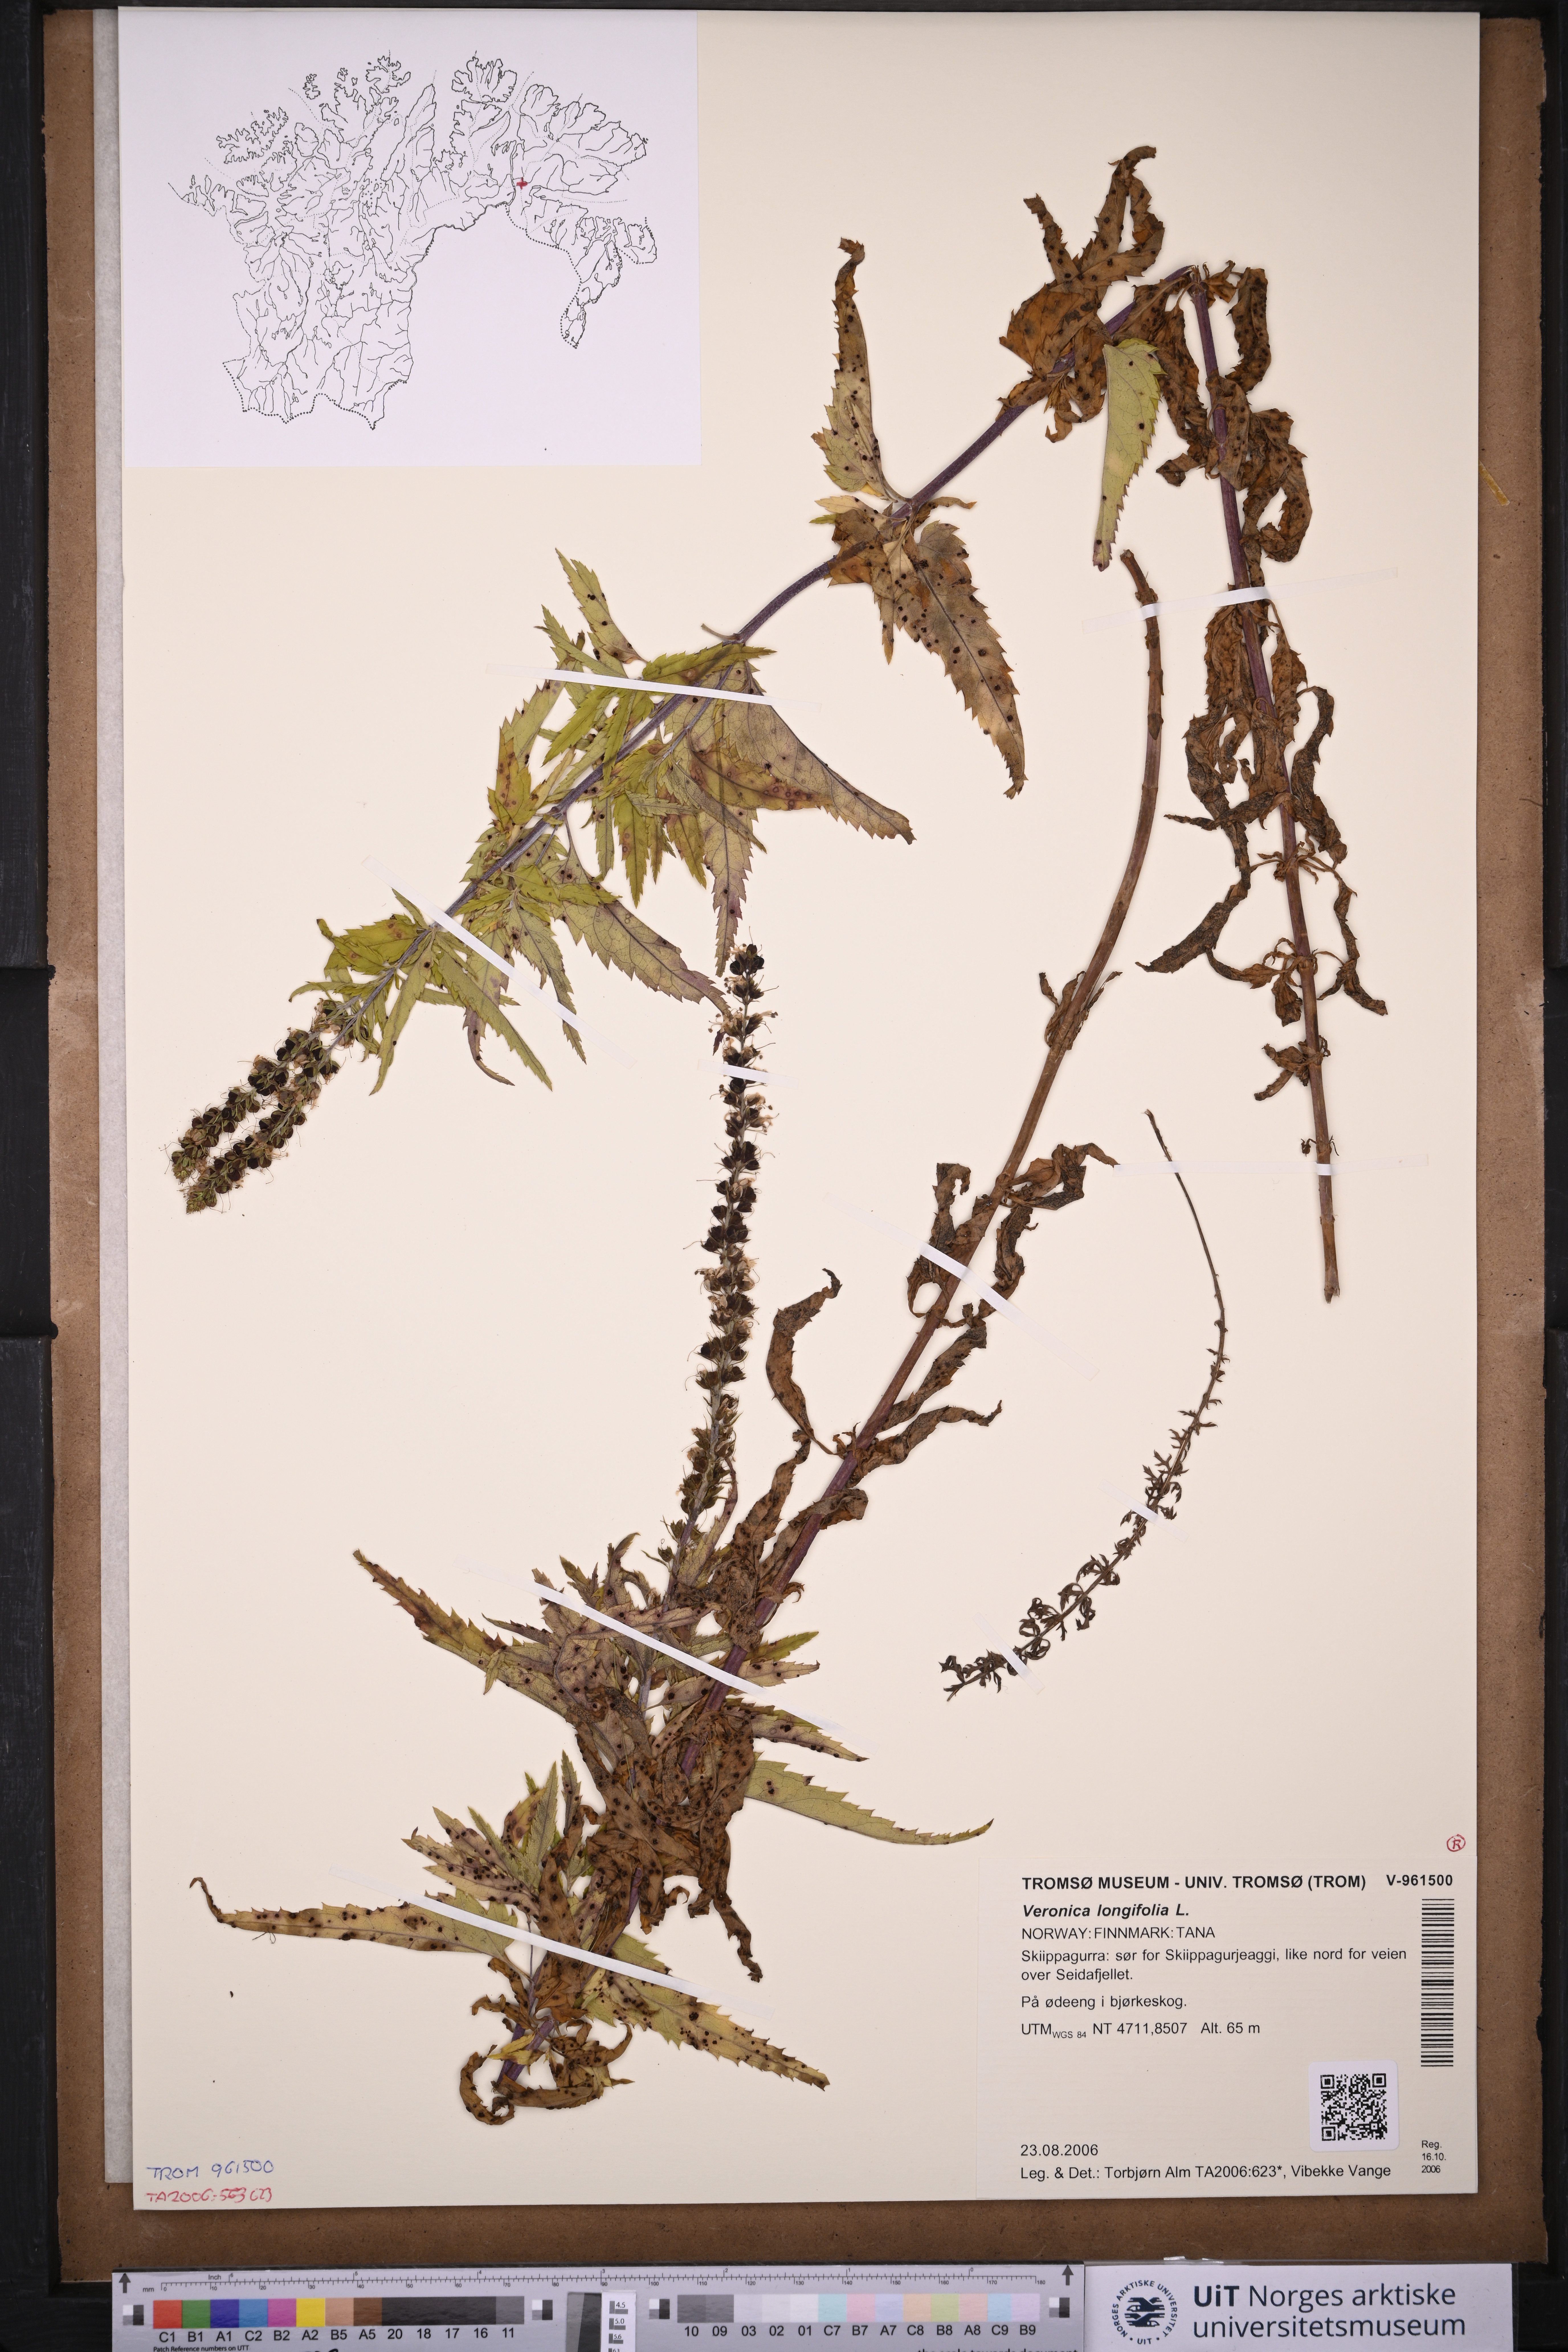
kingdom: Plantae
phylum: Tracheophyta
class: Magnoliopsida
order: Lamiales
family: Plantaginaceae
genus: Veronica
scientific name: Veronica longifolia
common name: Garden speedwell
